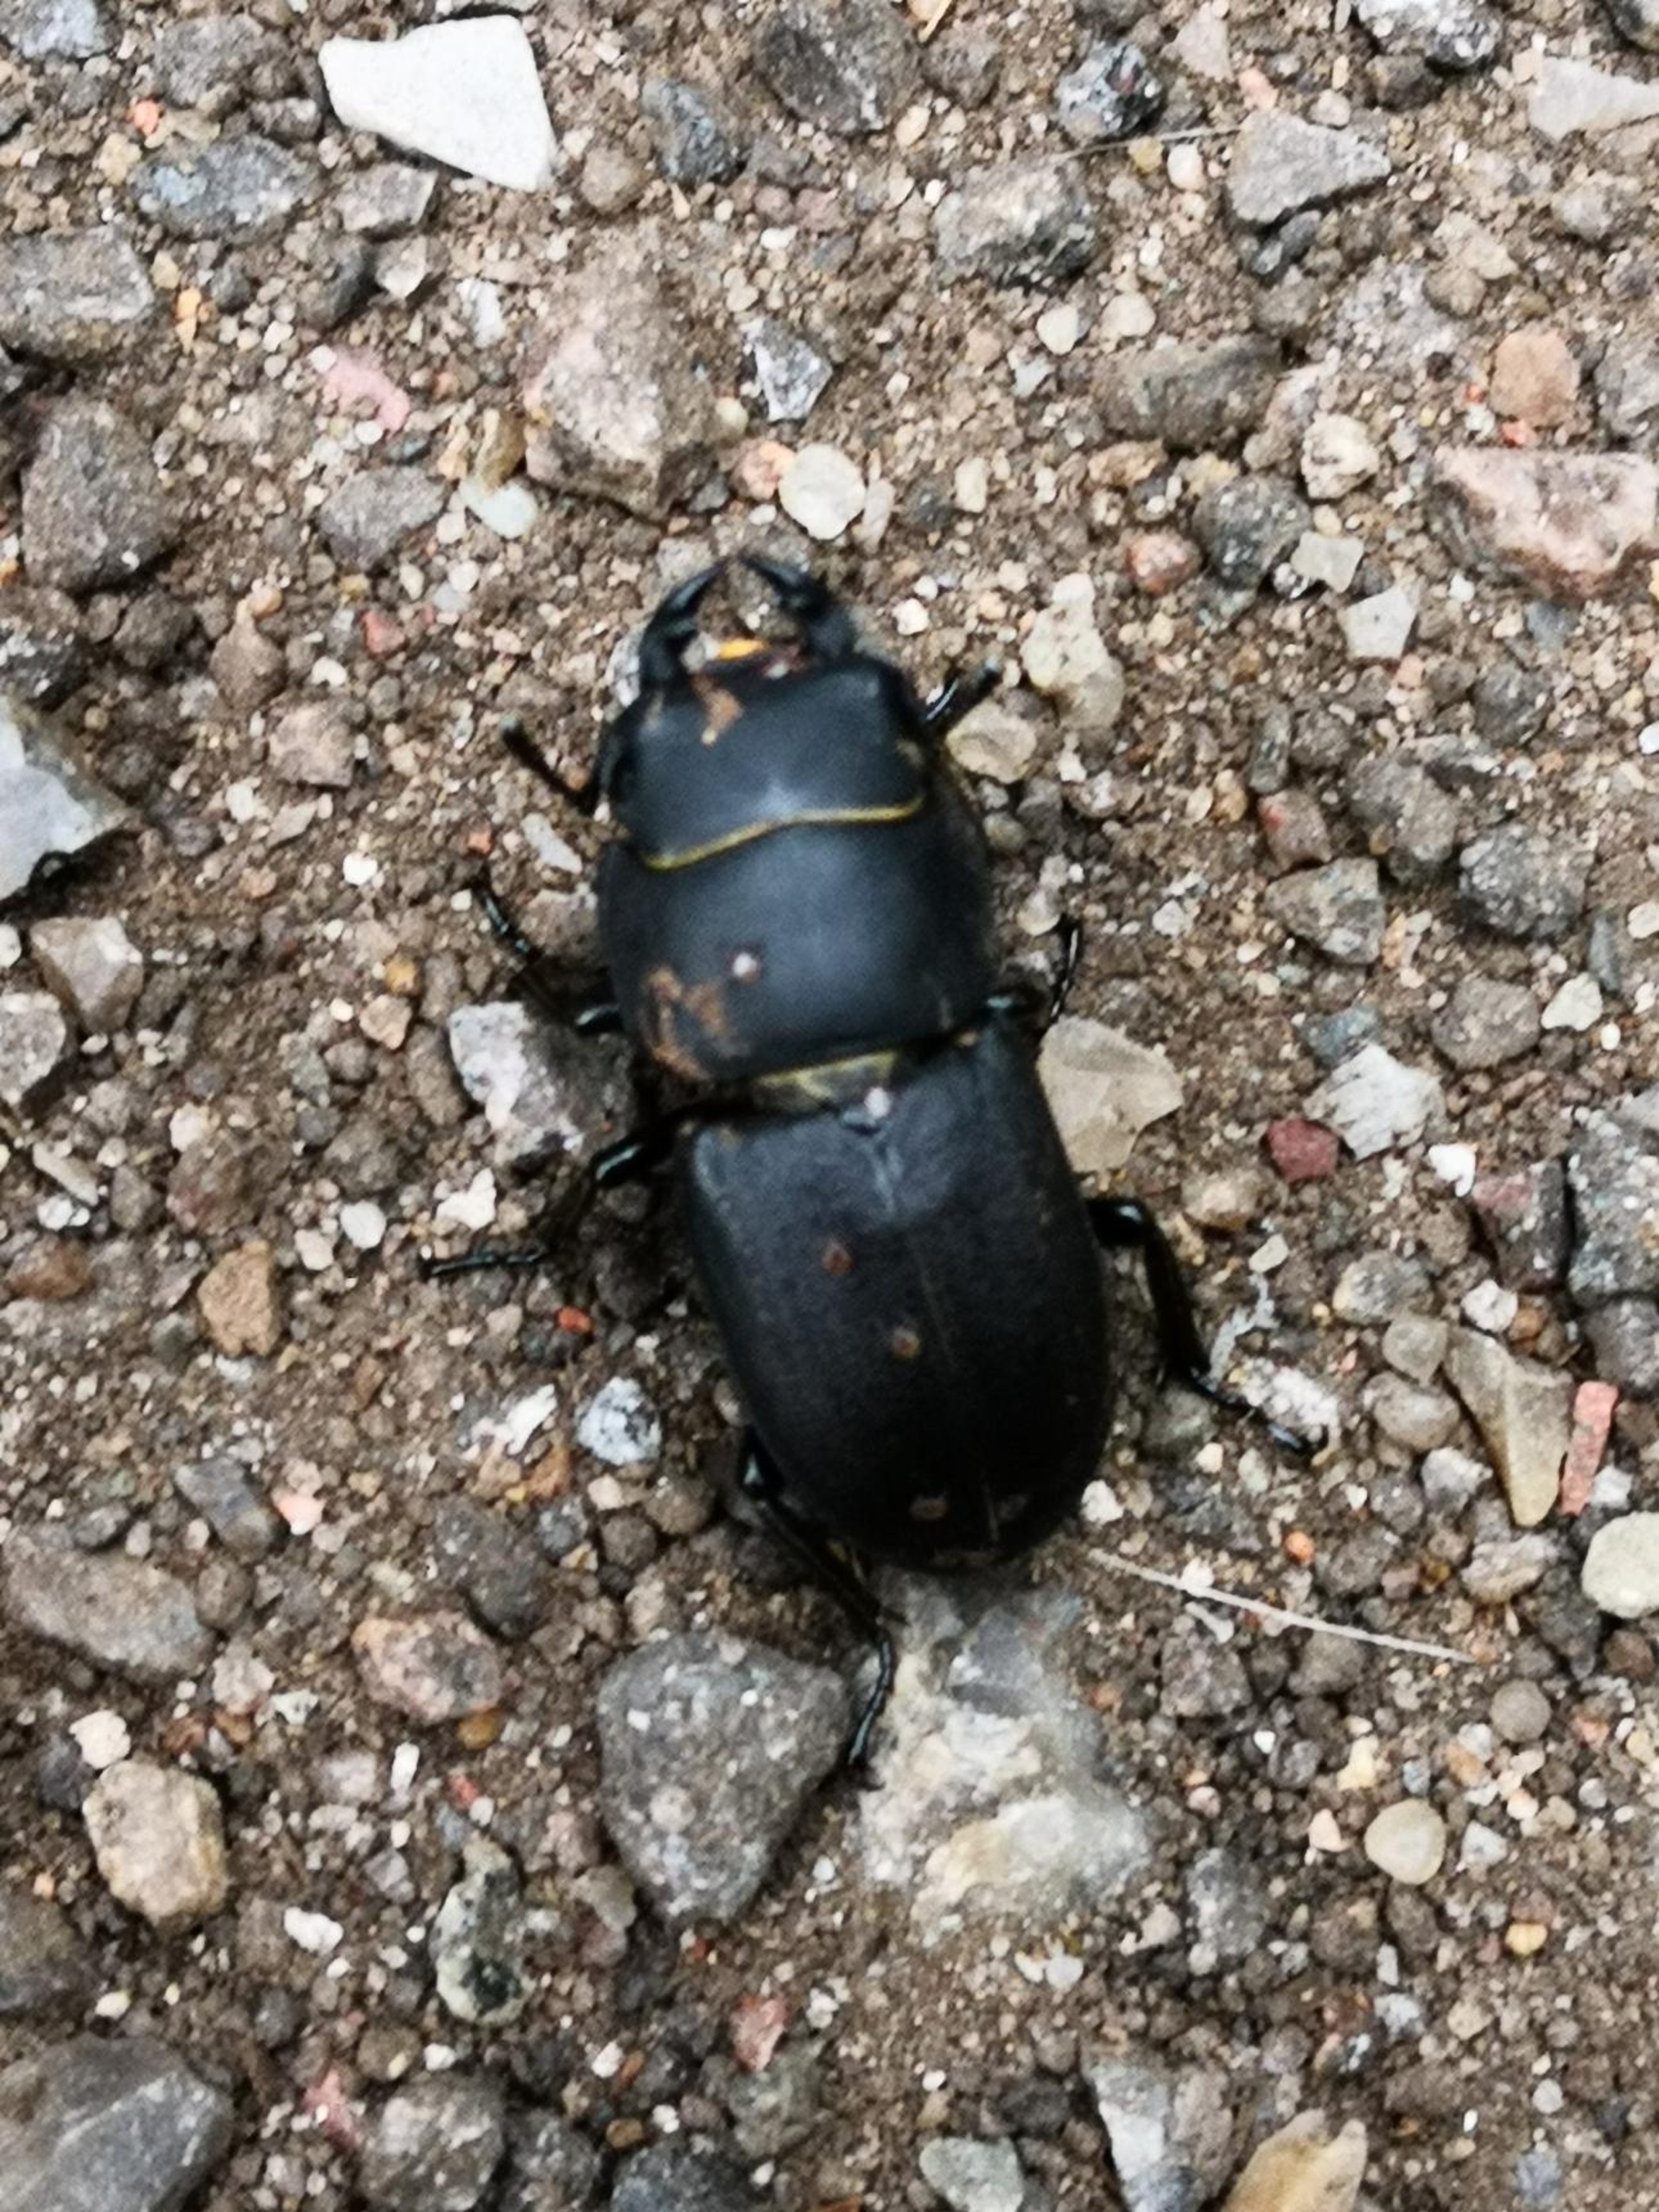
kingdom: Animalia
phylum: Arthropoda
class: Insecta
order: Coleoptera
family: Lucanidae
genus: Dorcus
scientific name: Dorcus parallelipipedus
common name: Bøghjort
